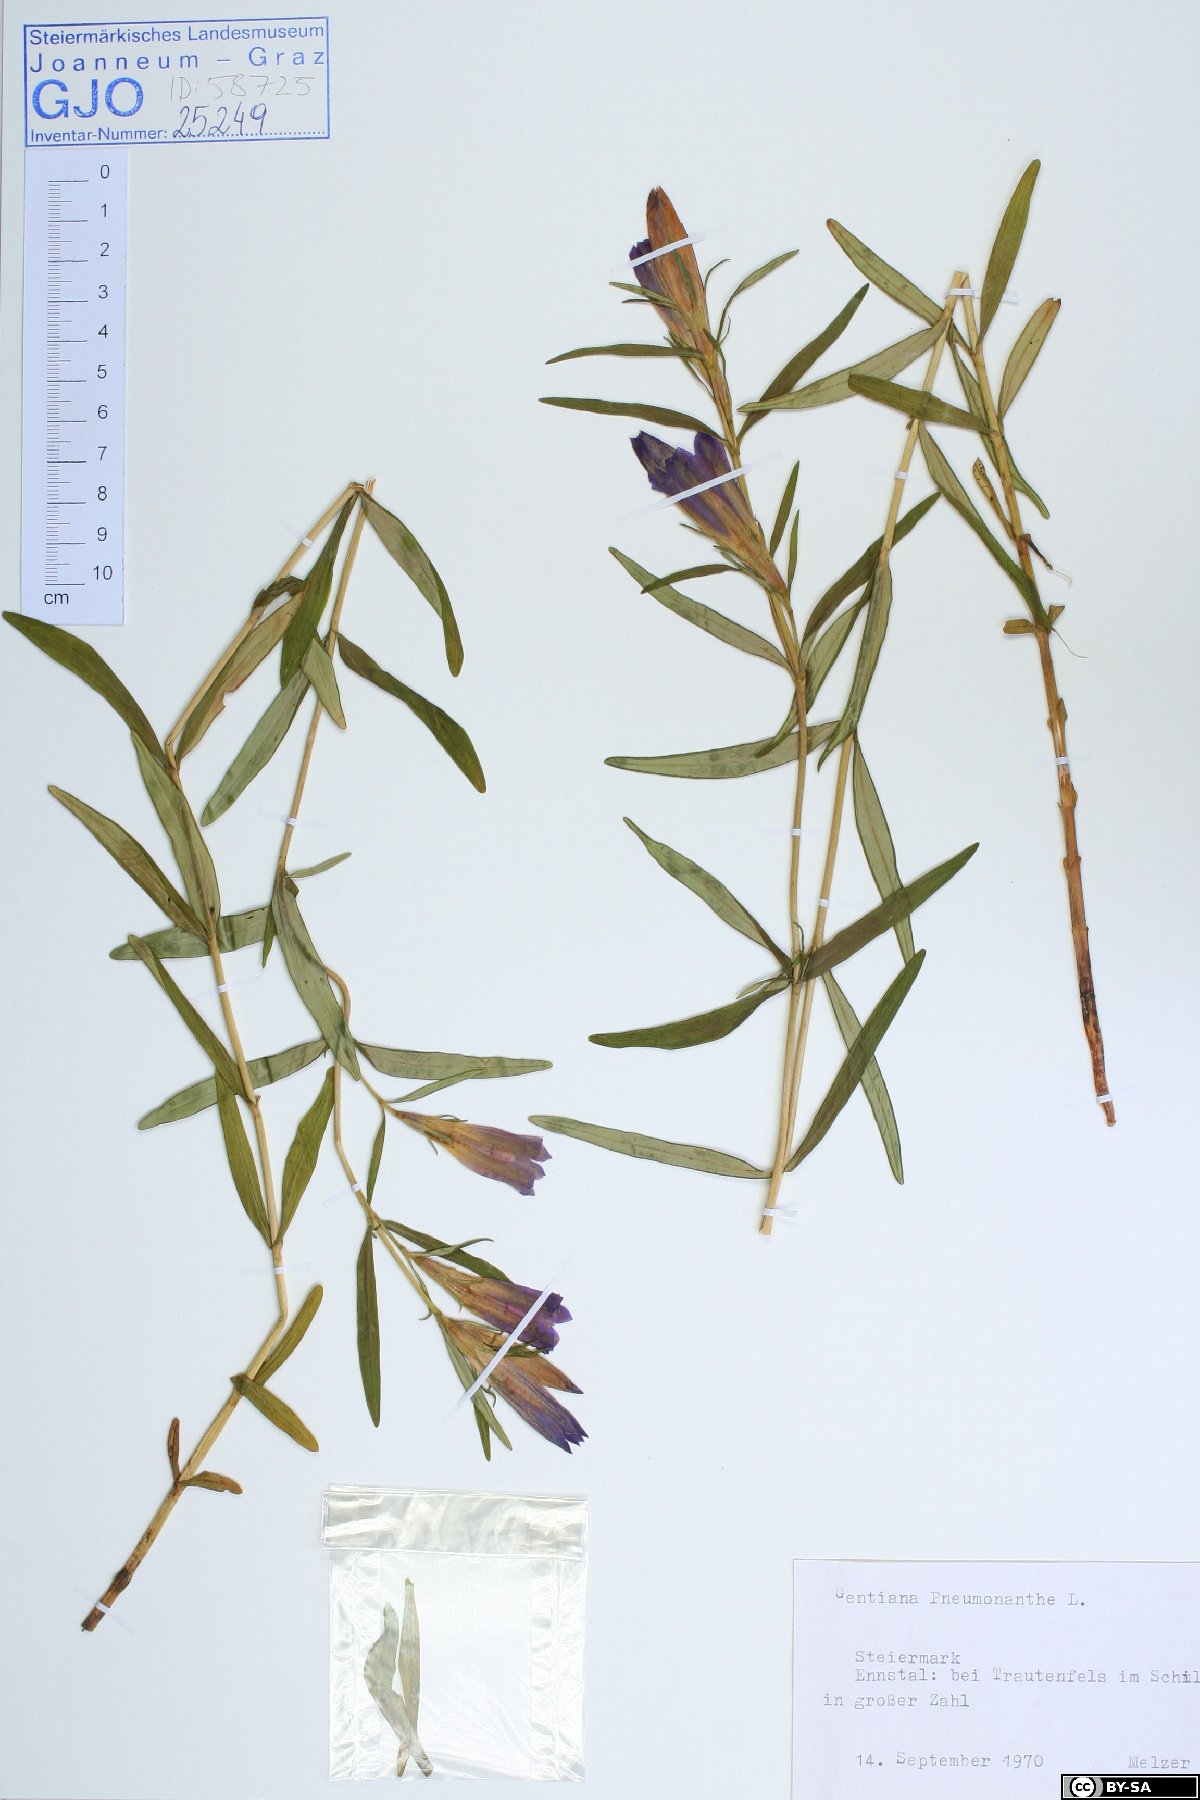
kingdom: Plantae
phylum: Tracheophyta
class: Magnoliopsida
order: Gentianales
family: Gentianaceae
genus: Gentiana
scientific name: Gentiana pneumonanthe
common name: Marsh gentian
